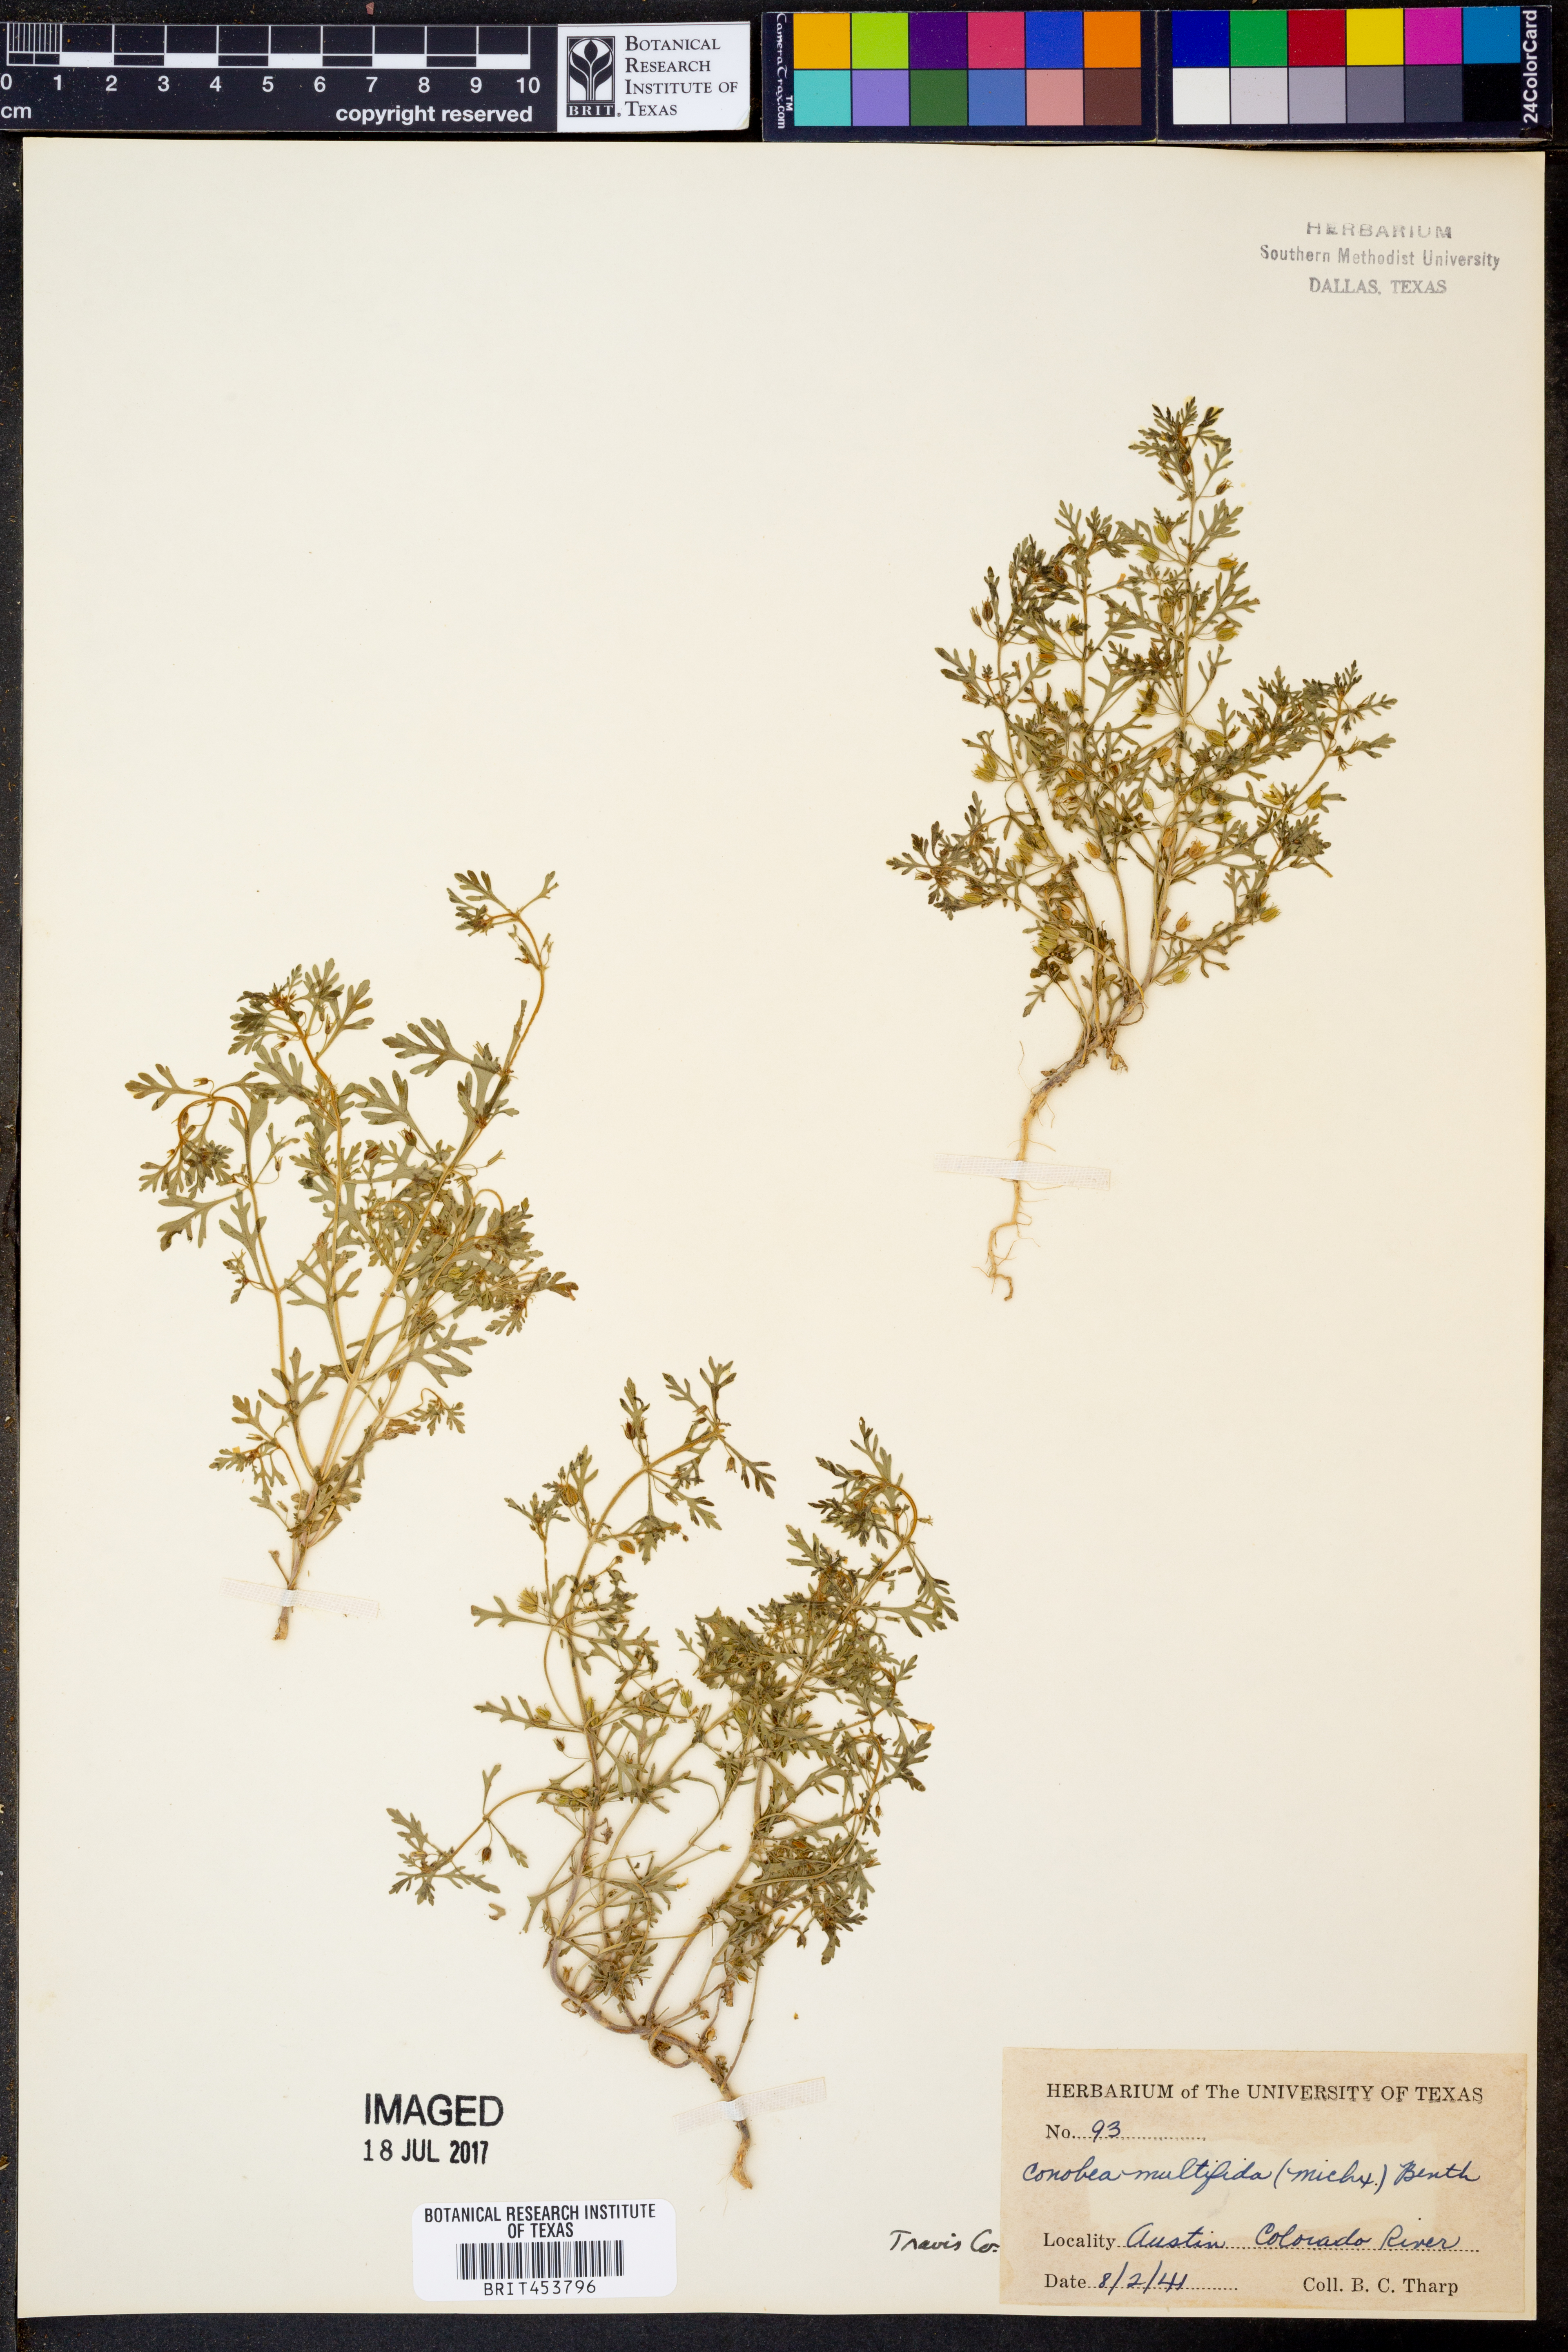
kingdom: Plantae
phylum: Tracheophyta
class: Magnoliopsida
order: Lamiales
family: Plantaginaceae
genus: Leucospora
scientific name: Leucospora multifida
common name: Narrow-leaf paleseed
